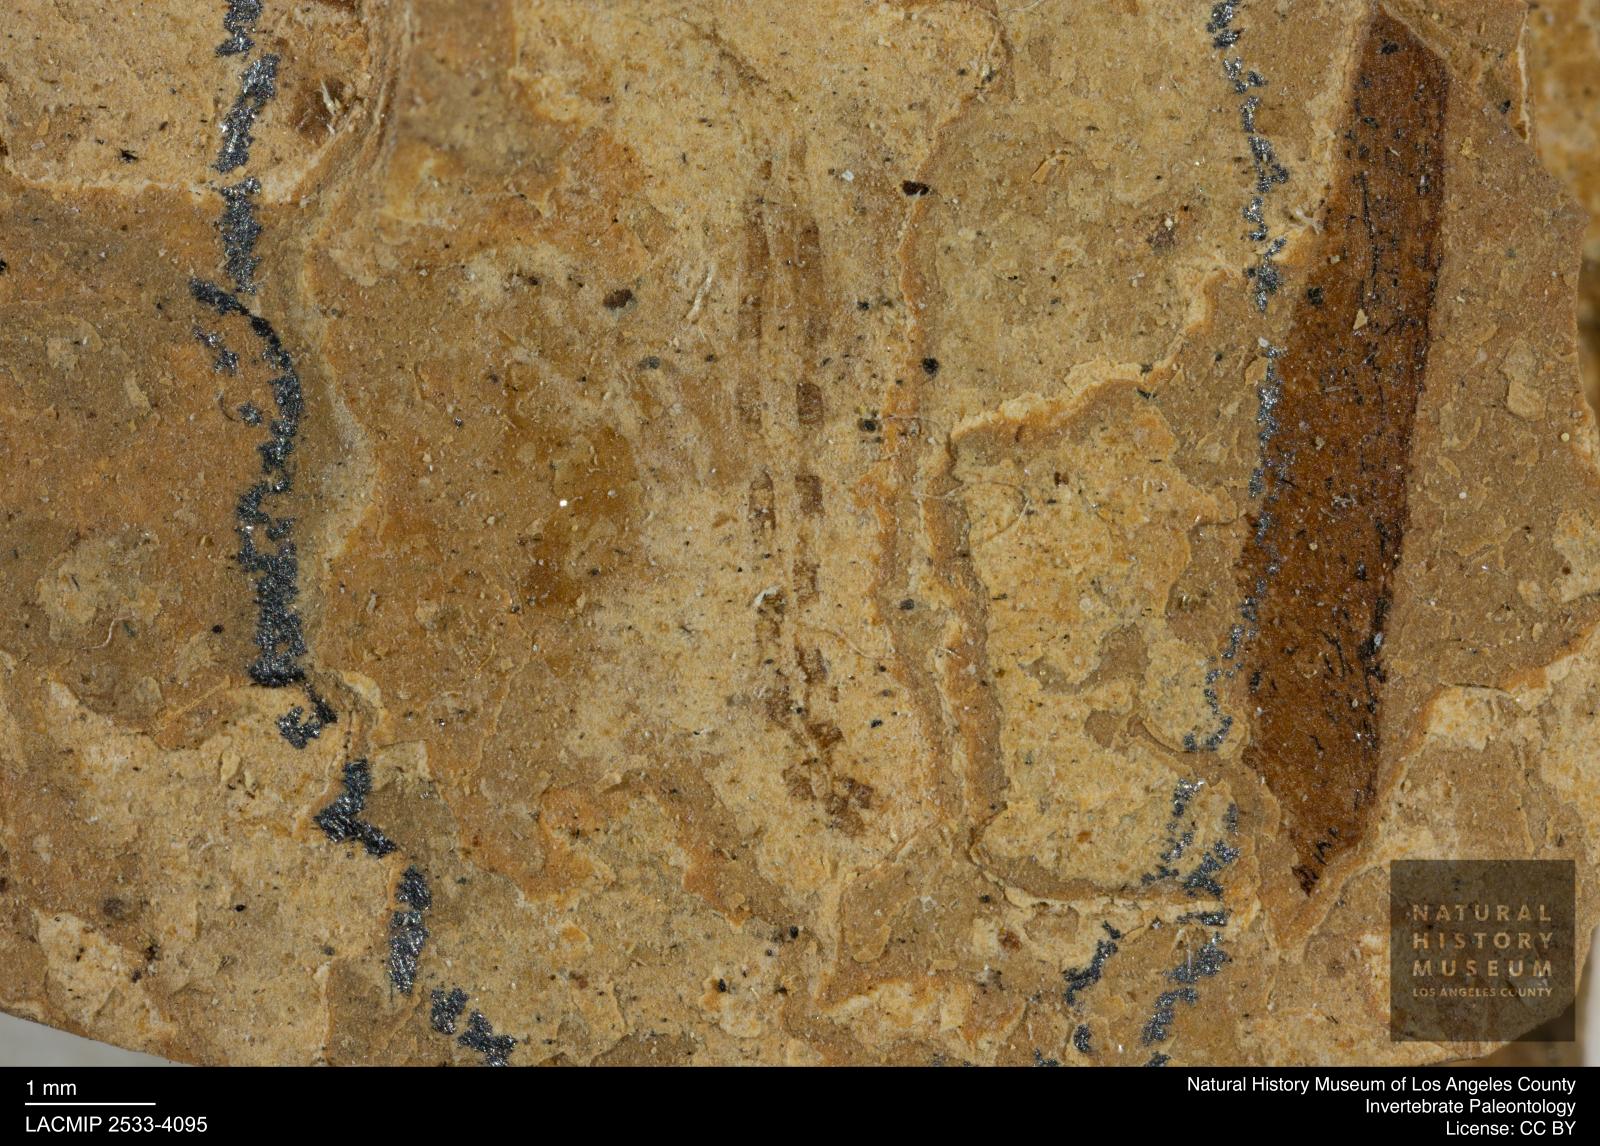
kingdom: Animalia
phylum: Arthropoda
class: Insecta
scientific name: Insecta
